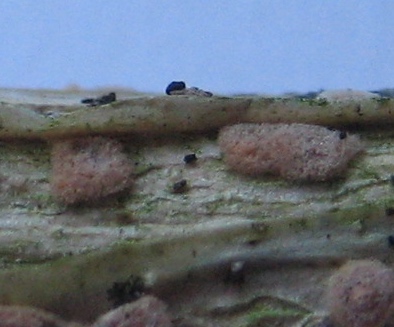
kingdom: Fungi
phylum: Ascomycota
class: Sordariomycetes
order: Hypocreales
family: Nectriaceae
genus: Sarcopodium
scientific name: Sarcopodium circinatum
